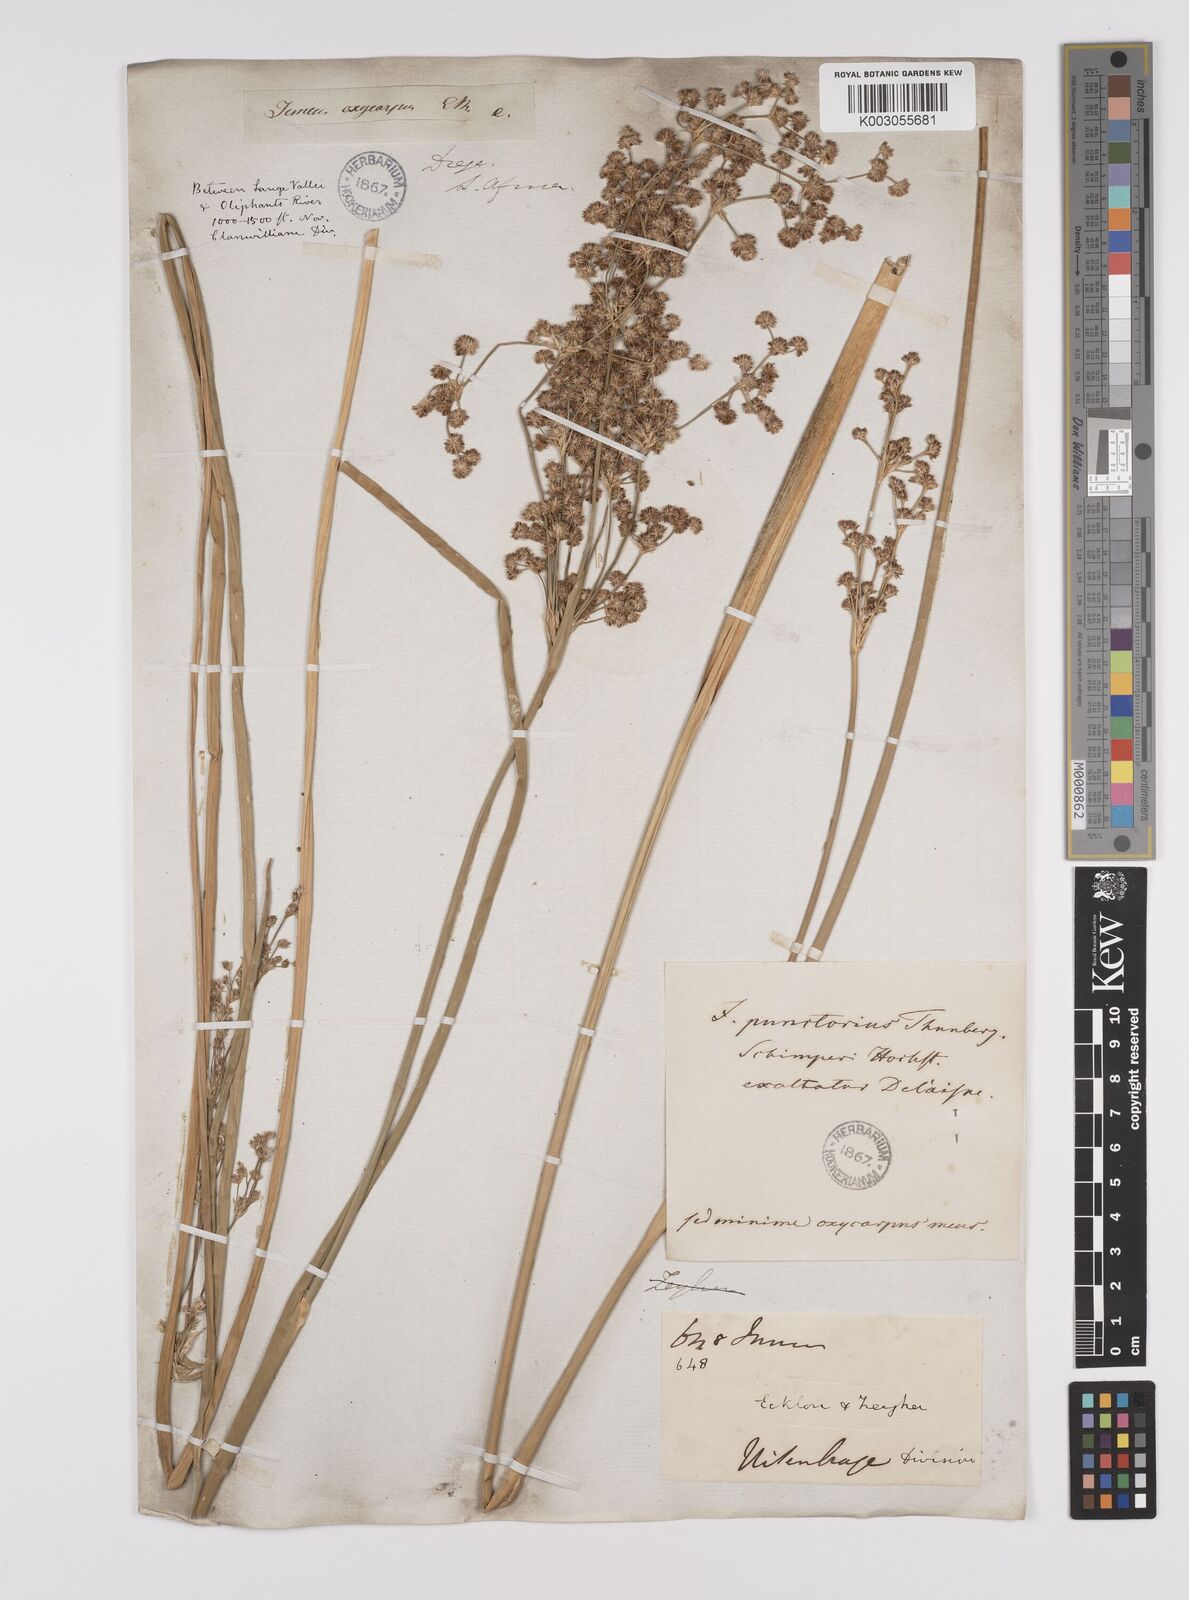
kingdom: Plantae
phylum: Tracheophyta
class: Liliopsida
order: Poales
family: Juncaceae
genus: Juncus
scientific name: Juncus punctorius
